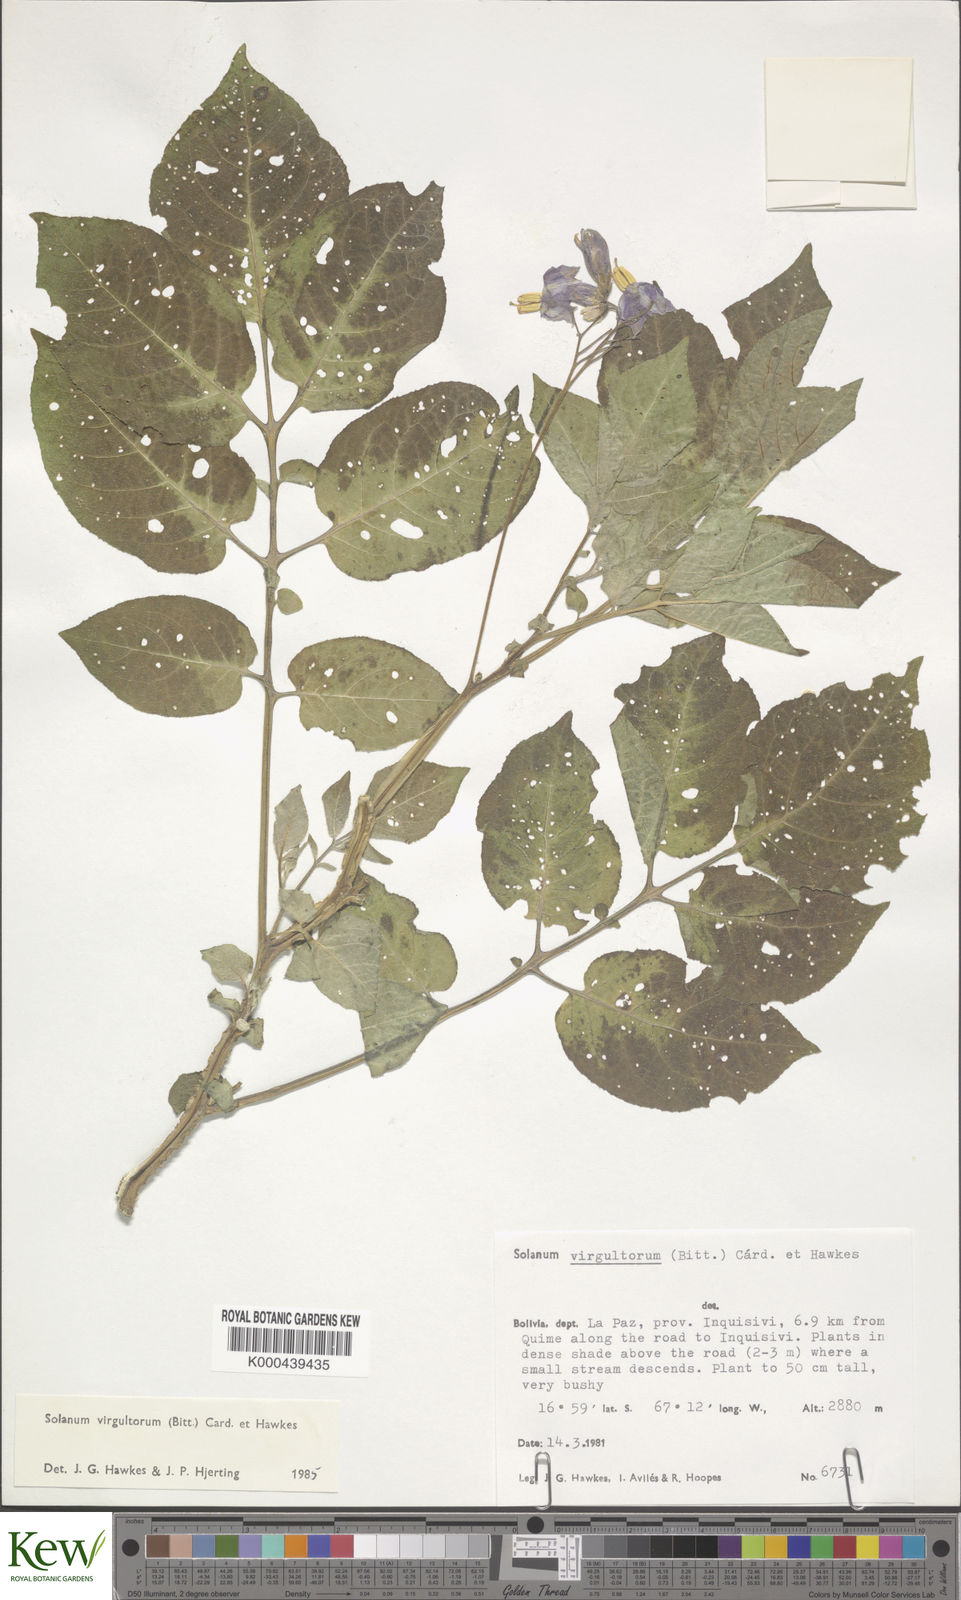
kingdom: Plantae
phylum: Tracheophyta
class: Magnoliopsida
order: Solanales
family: Solanaceae
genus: Solanum
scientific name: Solanum brevicaule
